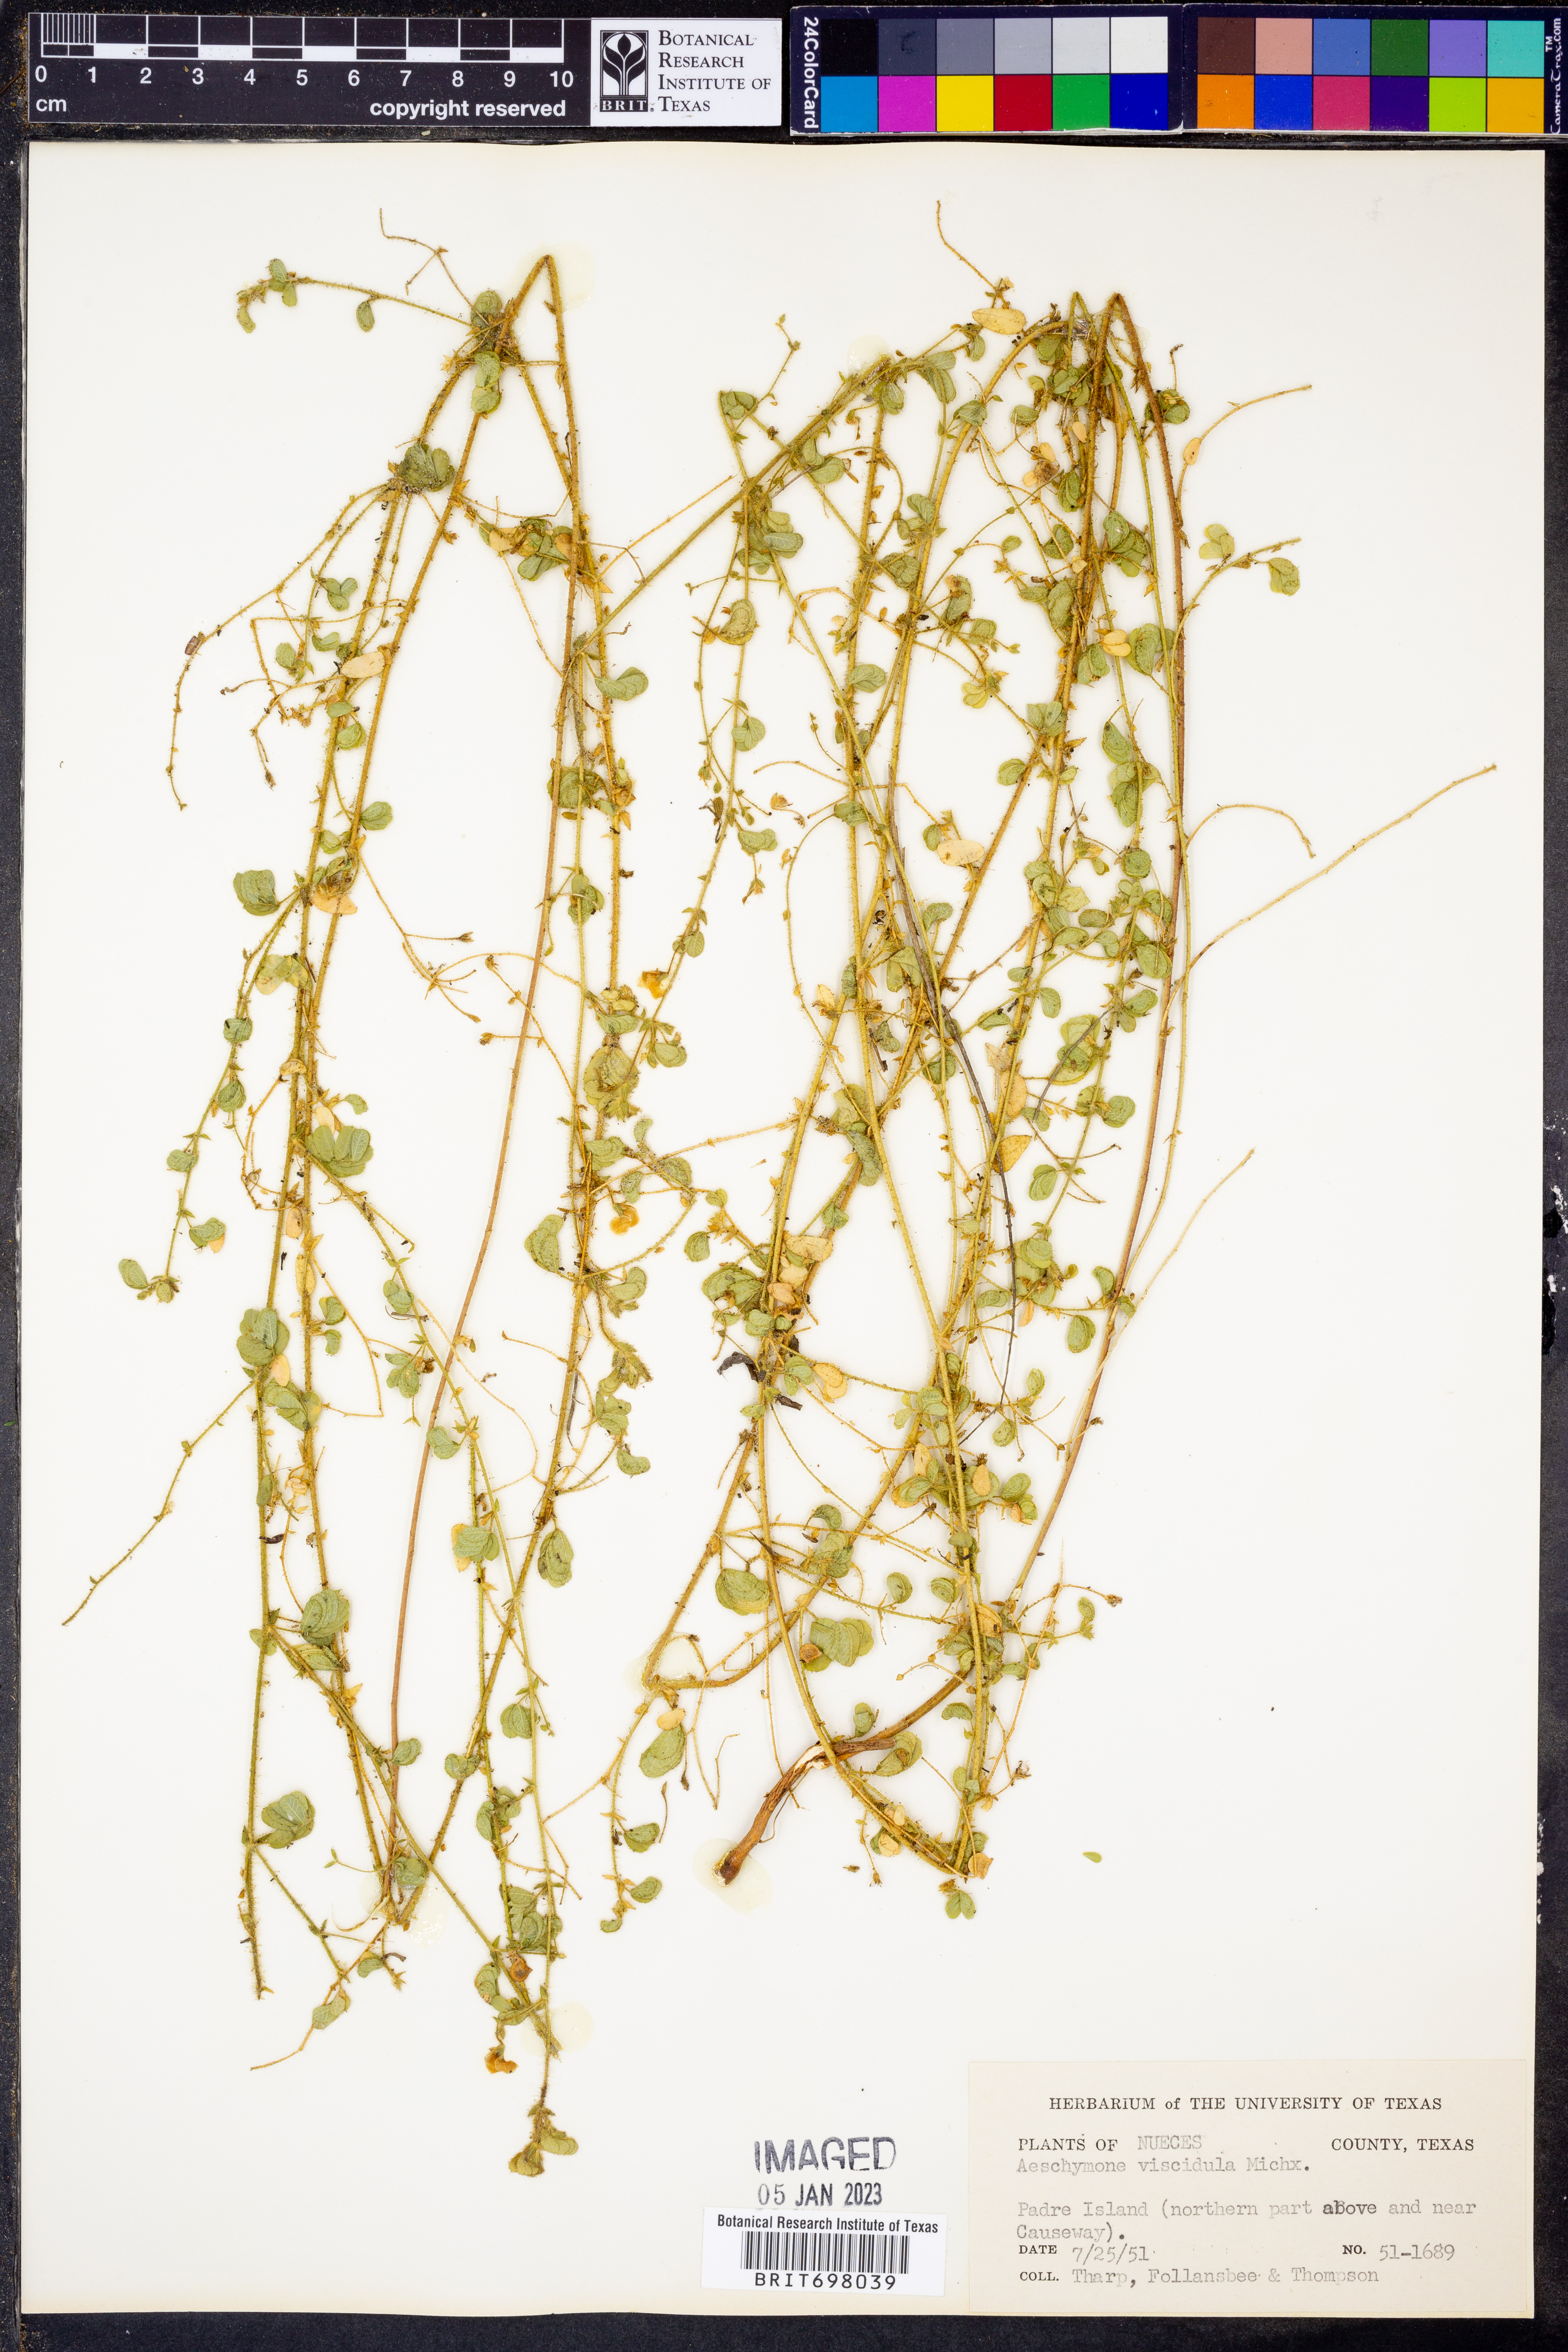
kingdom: Plantae
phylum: Tracheophyta
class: Magnoliopsida
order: Fabales
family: Fabaceae
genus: Aeschynomene
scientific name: Aeschynomene indica
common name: Indian jointvetch
